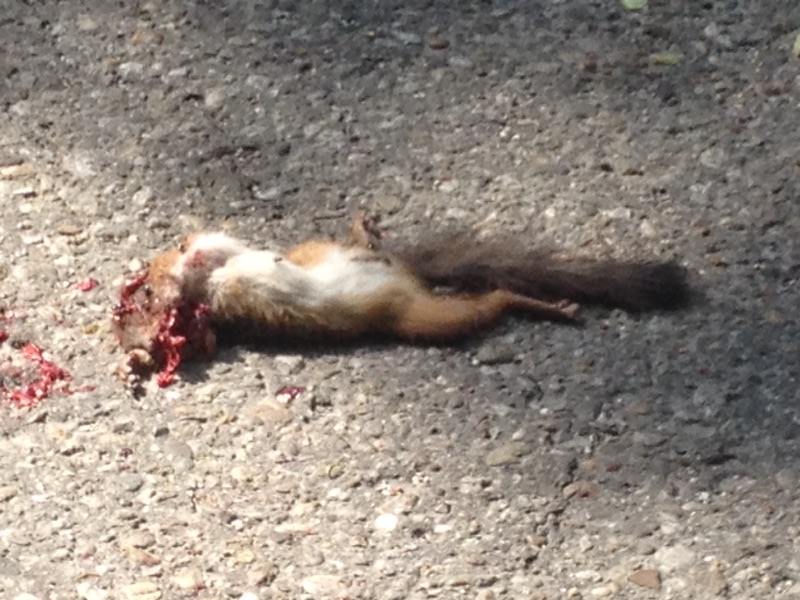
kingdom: Animalia
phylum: Chordata
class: Mammalia
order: Rodentia
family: Sciuridae
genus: Sciurus
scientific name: Sciurus vulgaris
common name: Eurasian red squirrel
